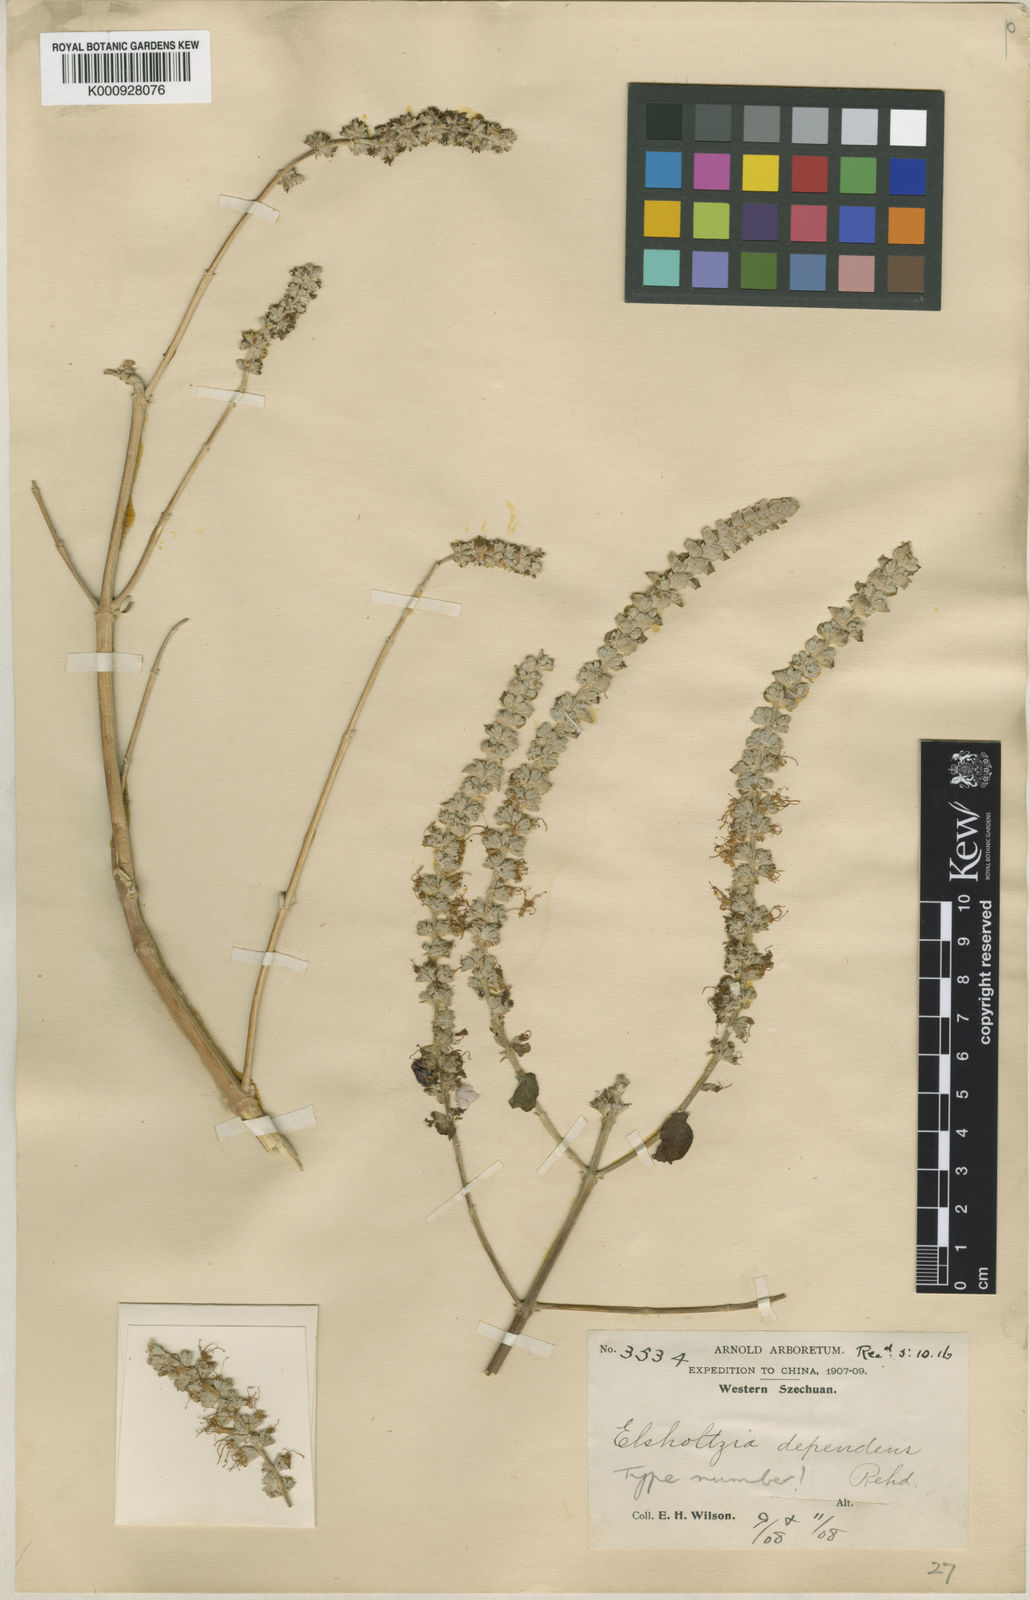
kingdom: Plantae
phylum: Tracheophyta
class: Magnoliopsida
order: Lamiales
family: Lamiaceae
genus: Rostrinucula
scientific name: Rostrinucula
